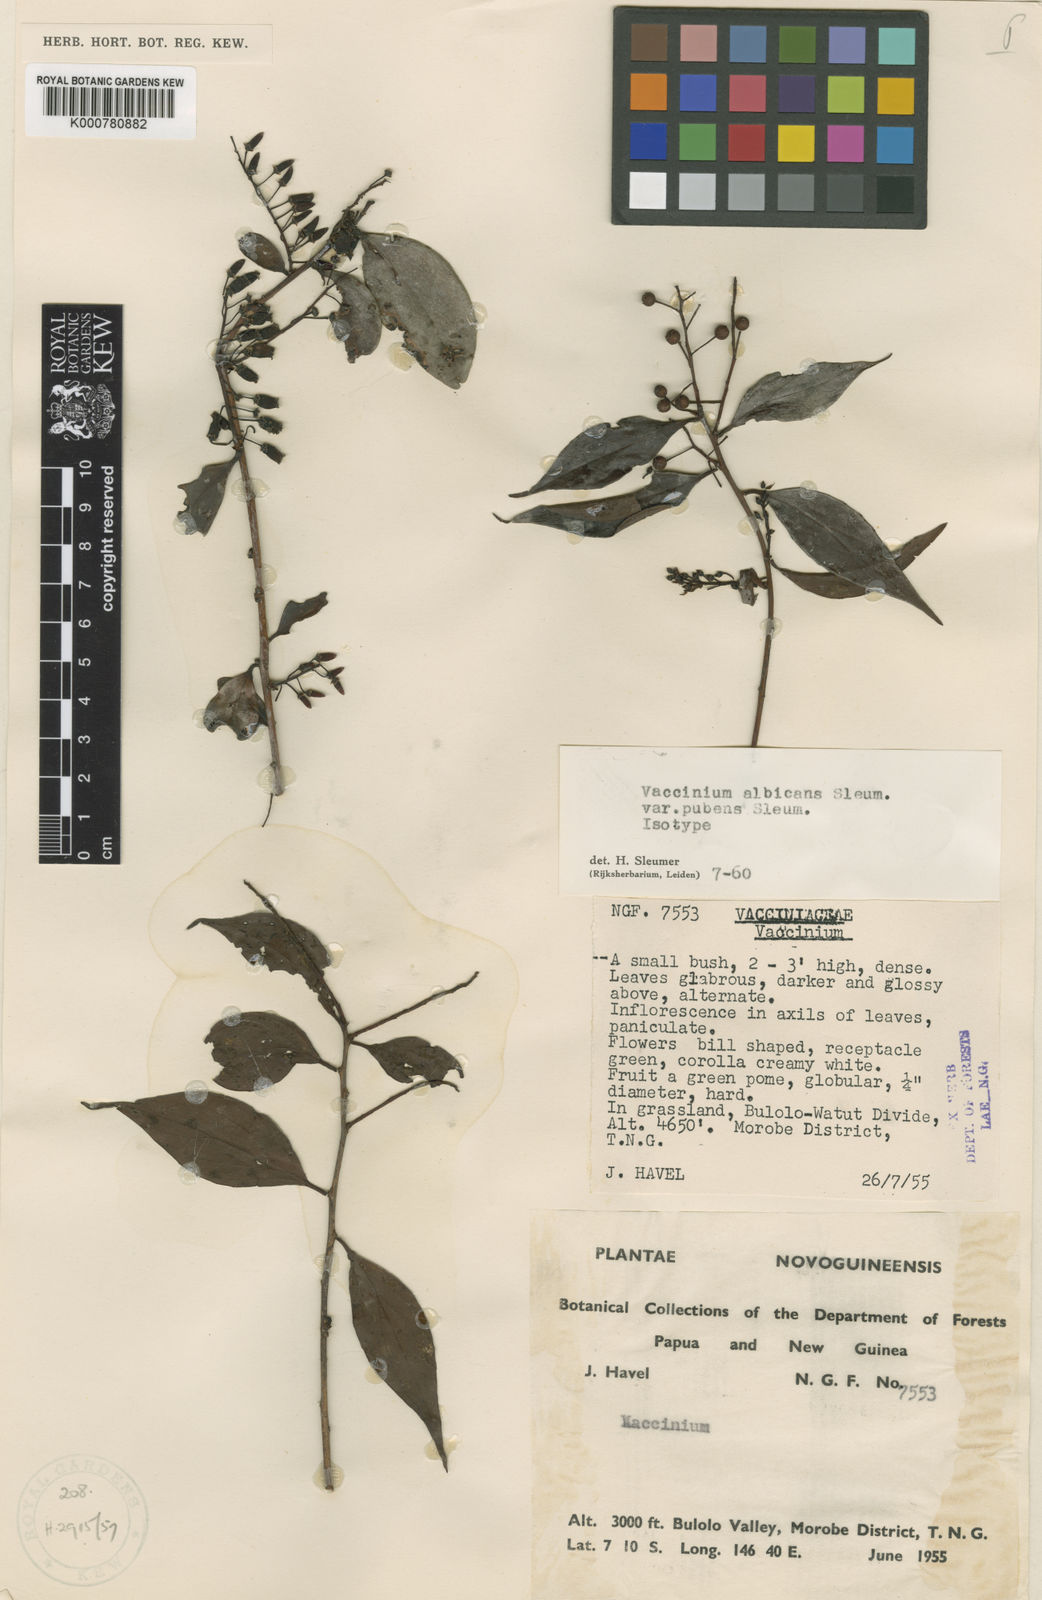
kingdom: Plantae
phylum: Tracheophyta
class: Magnoliopsida
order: Ericales
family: Ericaceae
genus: Vaccinium
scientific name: Vaccinium albicans
